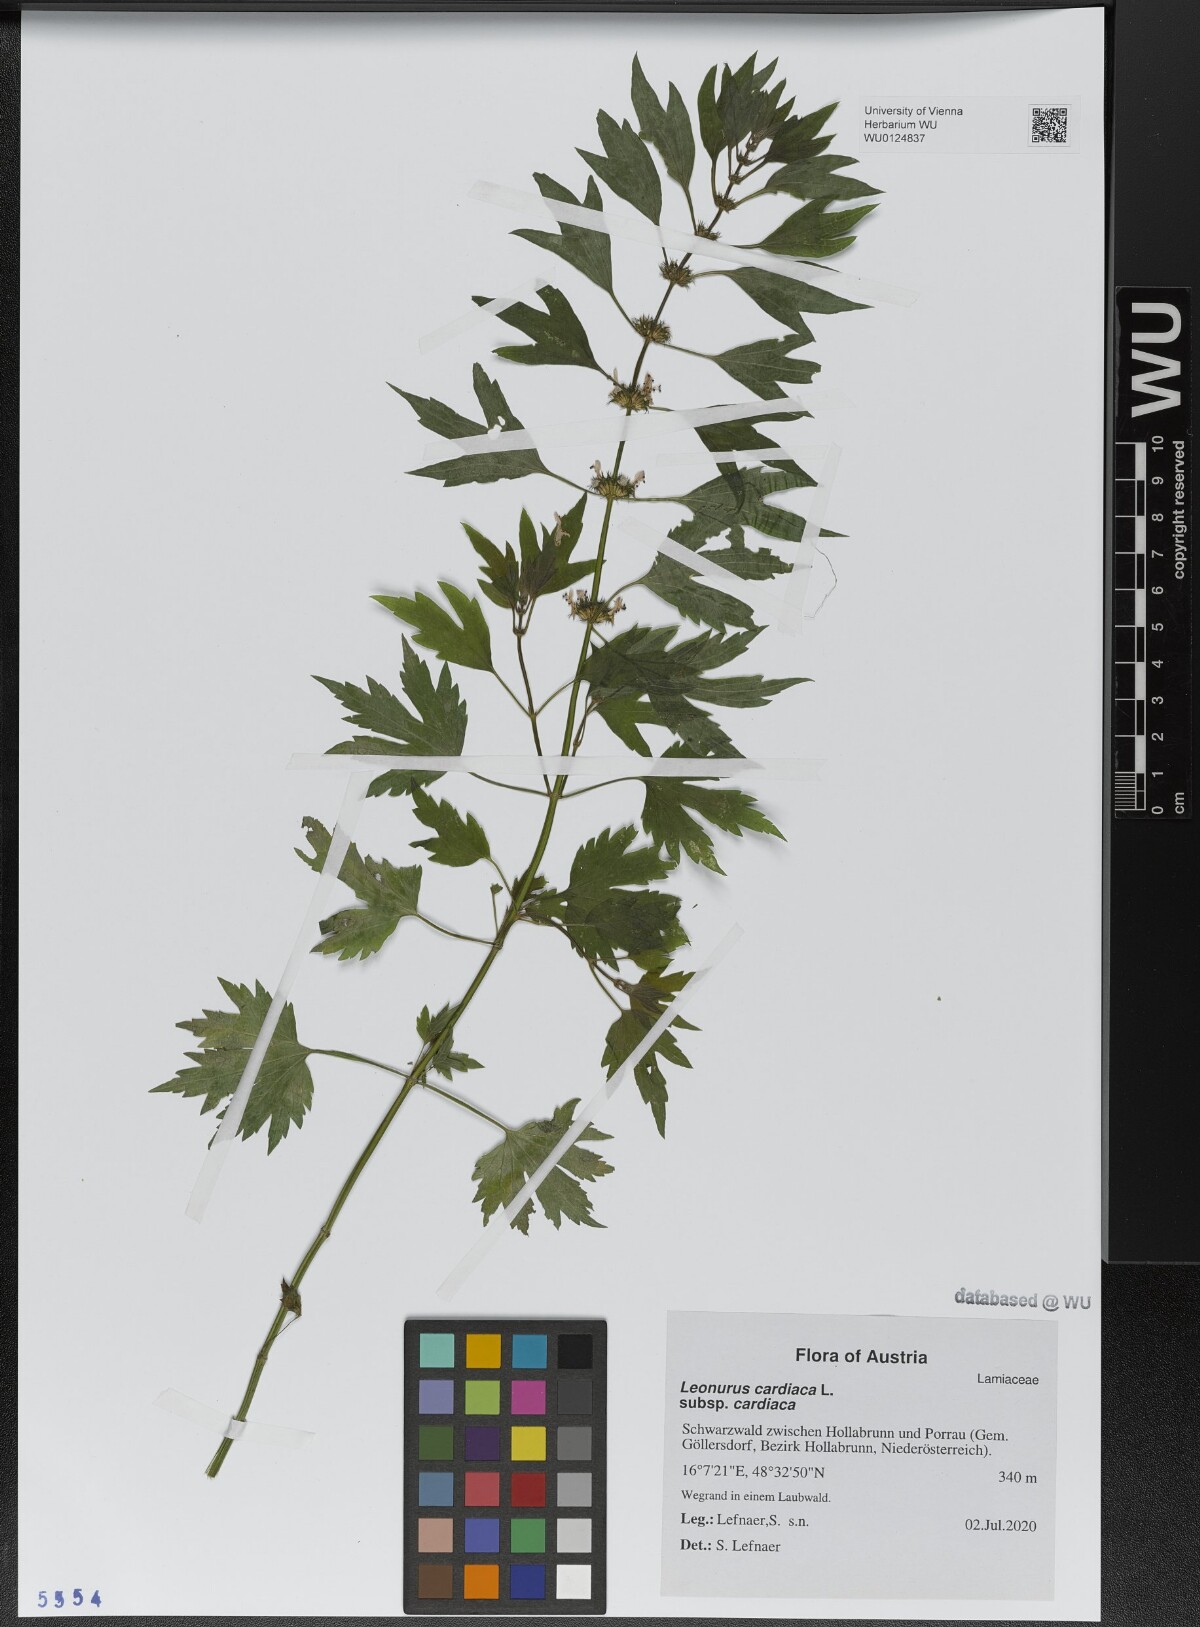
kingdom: Plantae
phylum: Tracheophyta
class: Magnoliopsida
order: Lamiales
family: Lamiaceae
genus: Leonurus
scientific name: Leonurus cardiaca
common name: Motherwort
